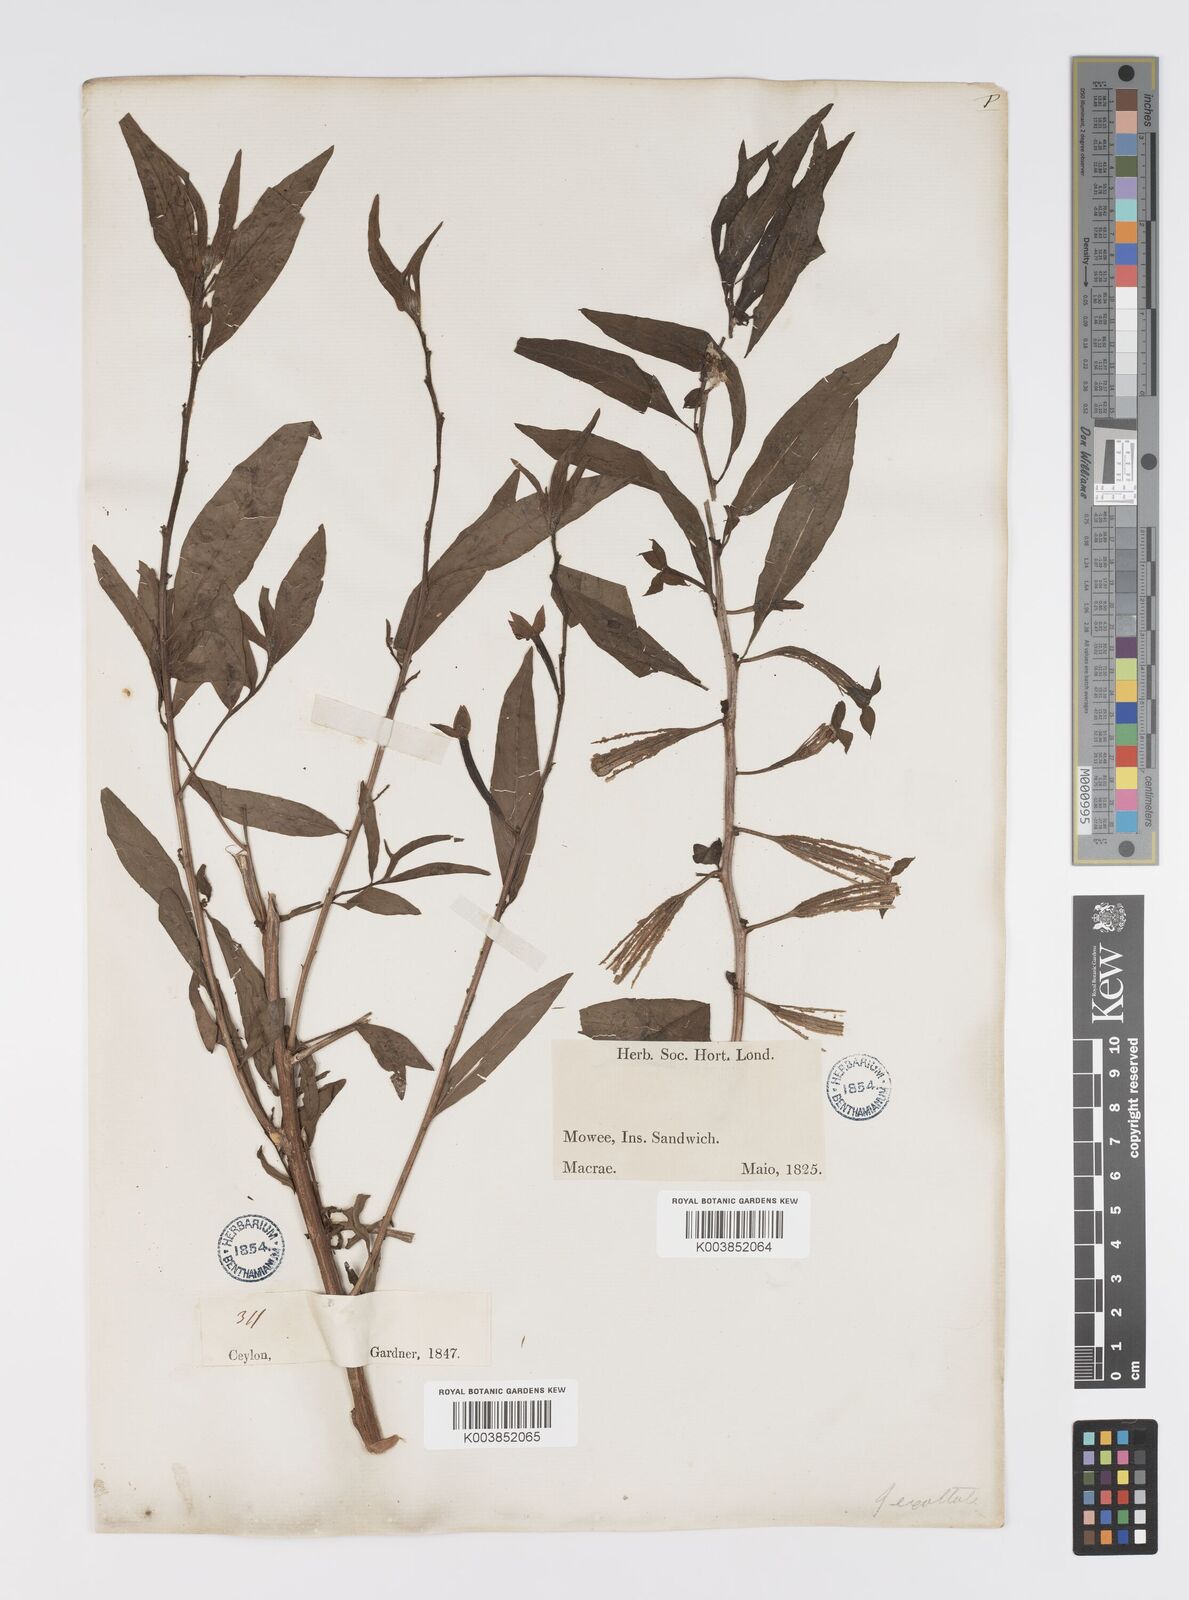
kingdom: Plantae
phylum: Tracheophyta
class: Magnoliopsida
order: Myrtales
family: Onagraceae
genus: Ludwigia
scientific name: Ludwigia octovalvis
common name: Water-primrose
